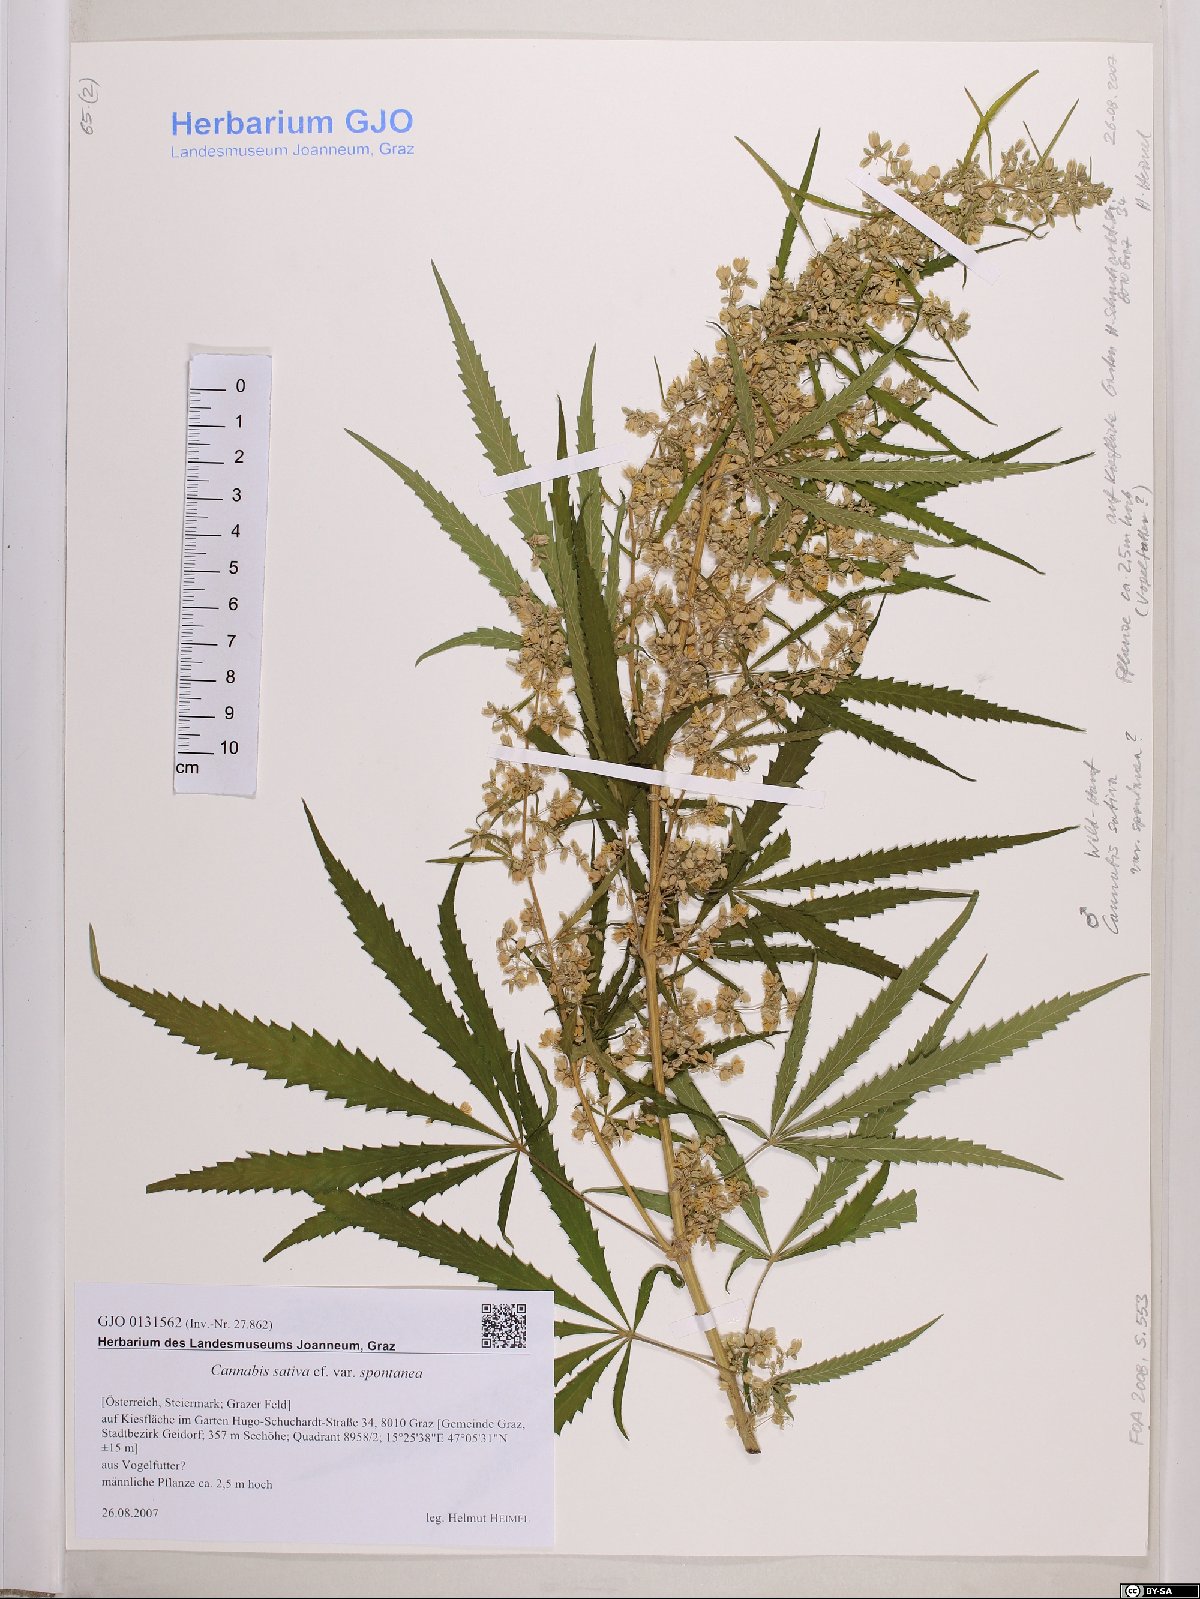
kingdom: Plantae
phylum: Tracheophyta
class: Magnoliopsida
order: Rosales
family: Cannabaceae
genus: Cannabis
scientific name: Cannabis sativa
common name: Hemp
